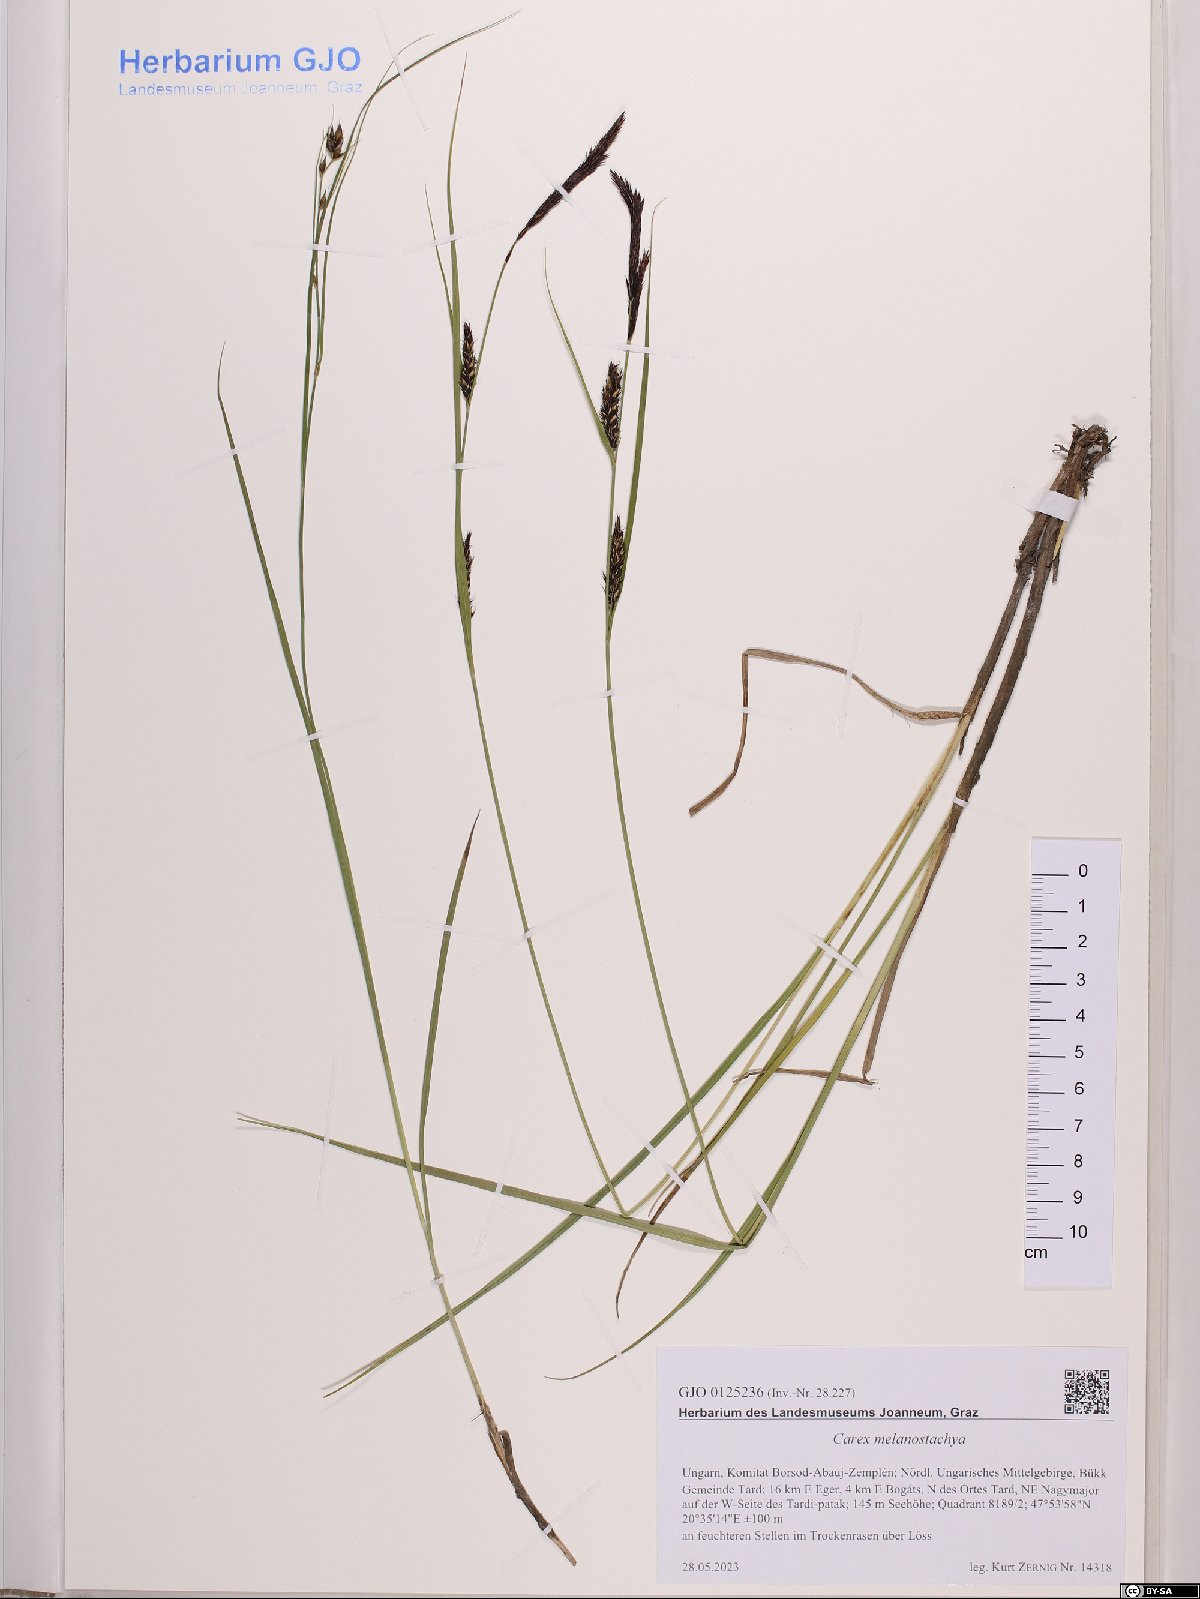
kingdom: Plantae
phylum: Tracheophyta
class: Liliopsida
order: Poales
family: Cyperaceae
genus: Carex
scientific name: Carex melanostachya
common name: Black-spiked sedge
